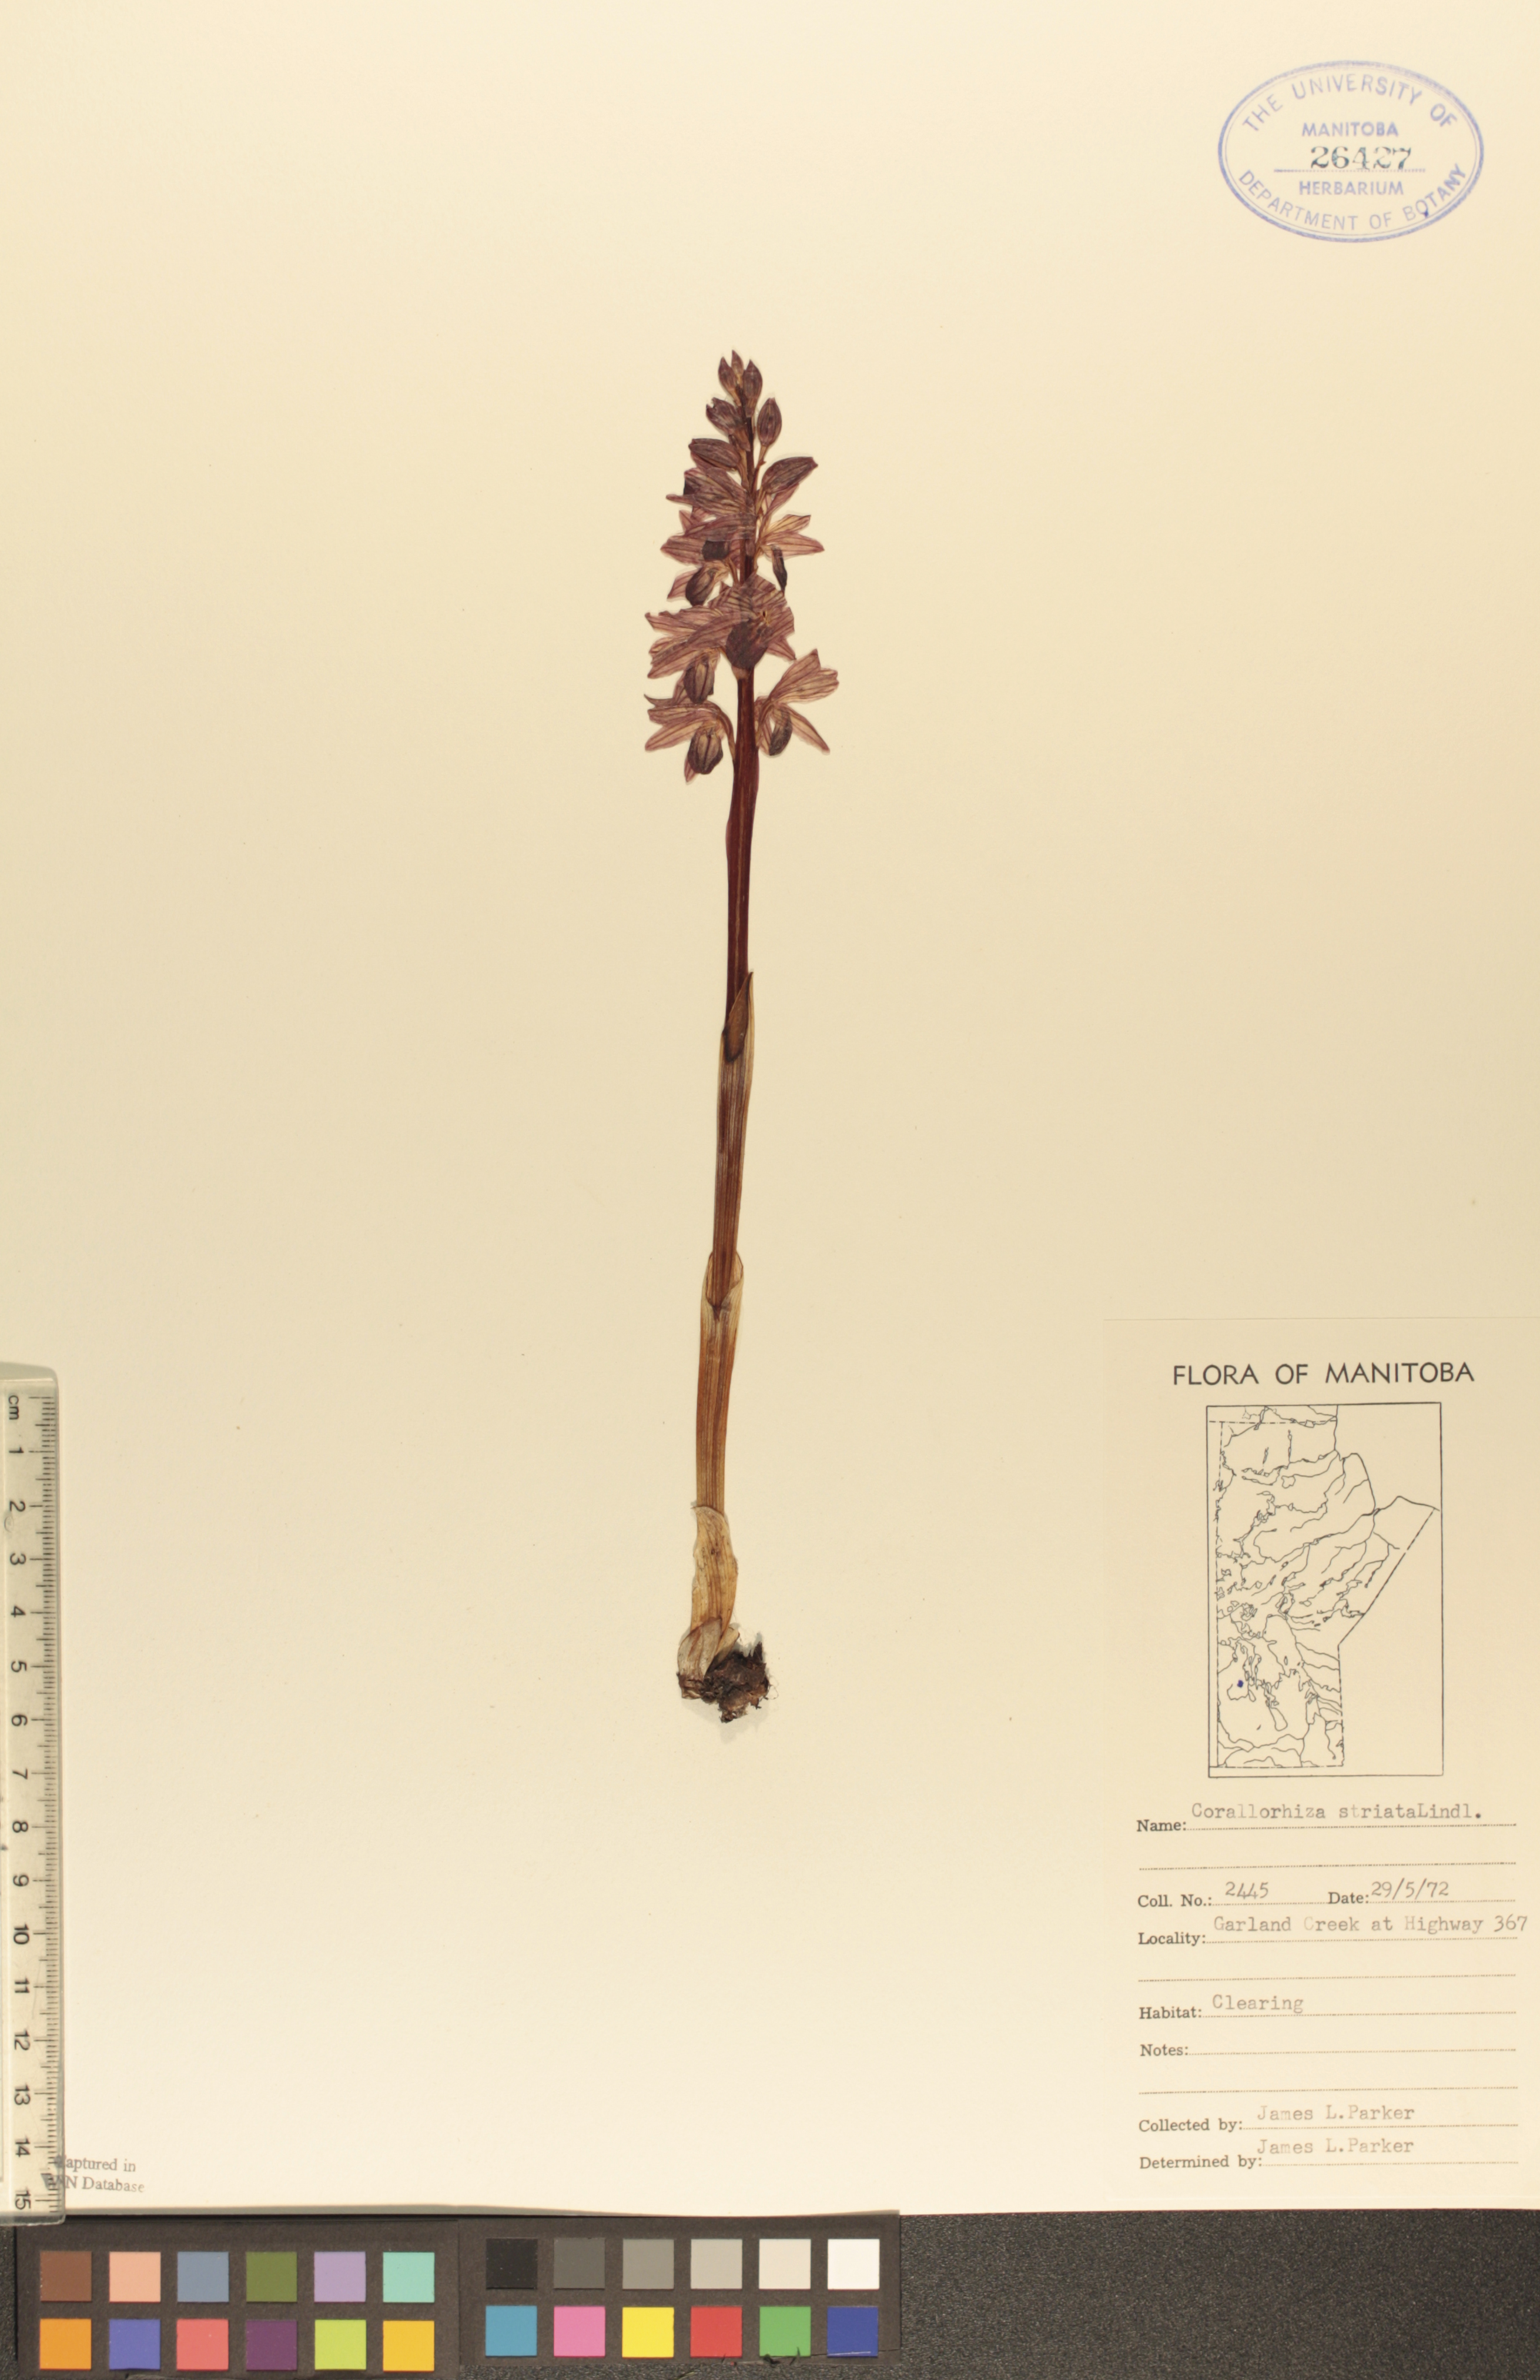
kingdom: Plantae
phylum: Tracheophyta
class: Liliopsida
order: Asparagales
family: Orchidaceae
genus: Corallorhiza
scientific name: Corallorhiza striata
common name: Hooded coralroot
